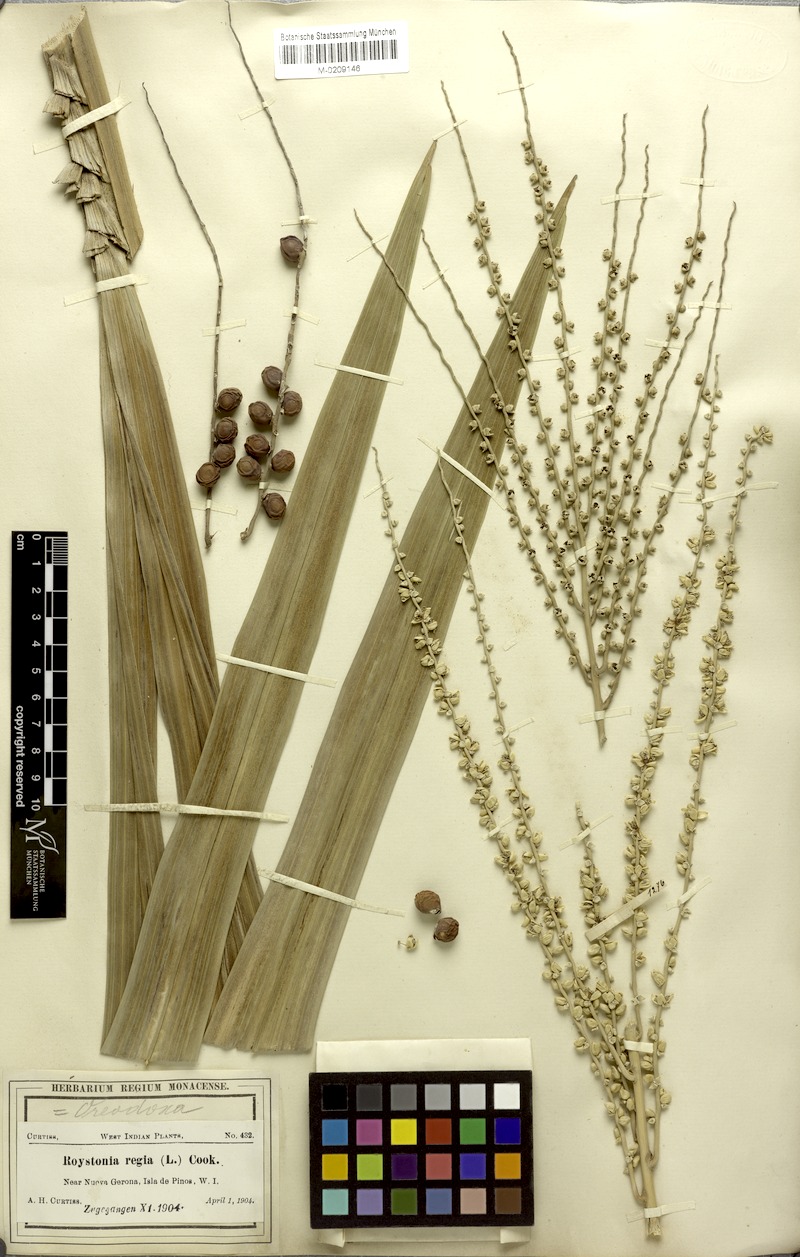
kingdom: Plantae
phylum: Tracheophyta
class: Liliopsida
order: Arecales
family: Arecaceae
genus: Roystonea
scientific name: Roystonea regia
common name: Florida royal palm
